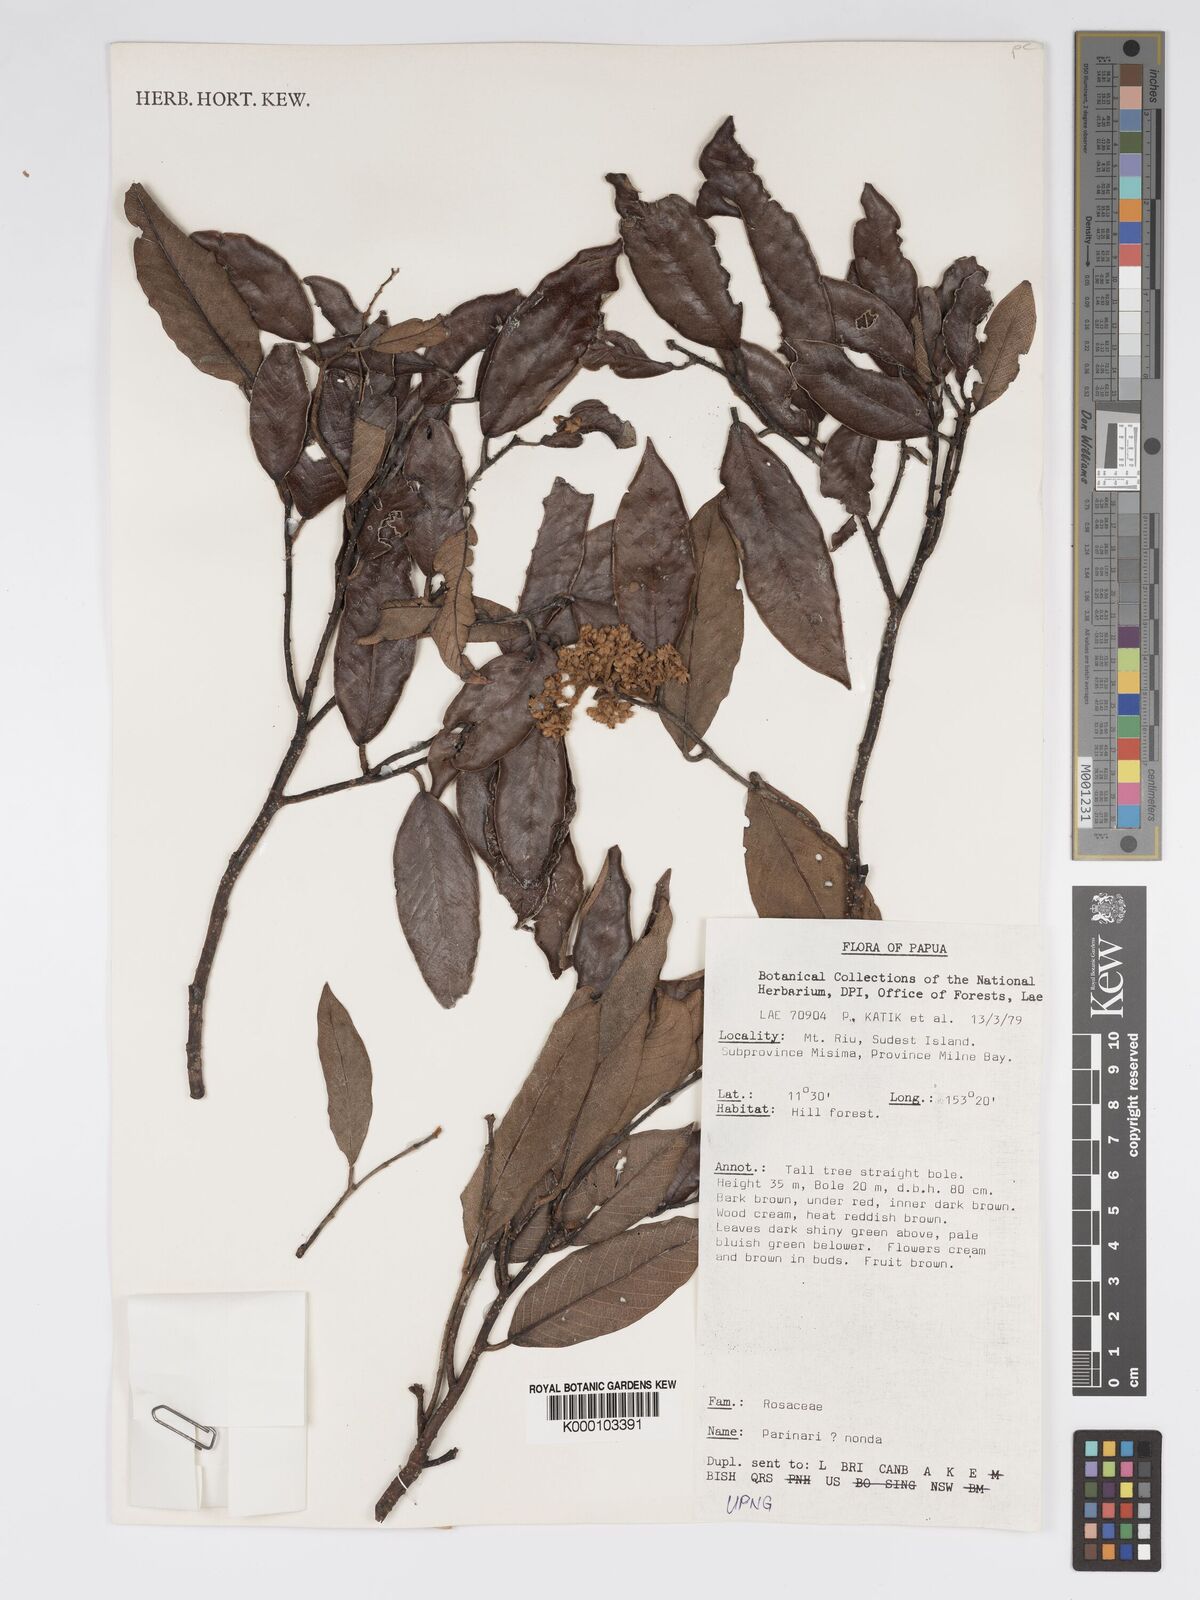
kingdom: Plantae
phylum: Tracheophyta
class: Magnoliopsida
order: Malpighiales
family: Chrysobalanaceae
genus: Parinari
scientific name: Parinari nonda
